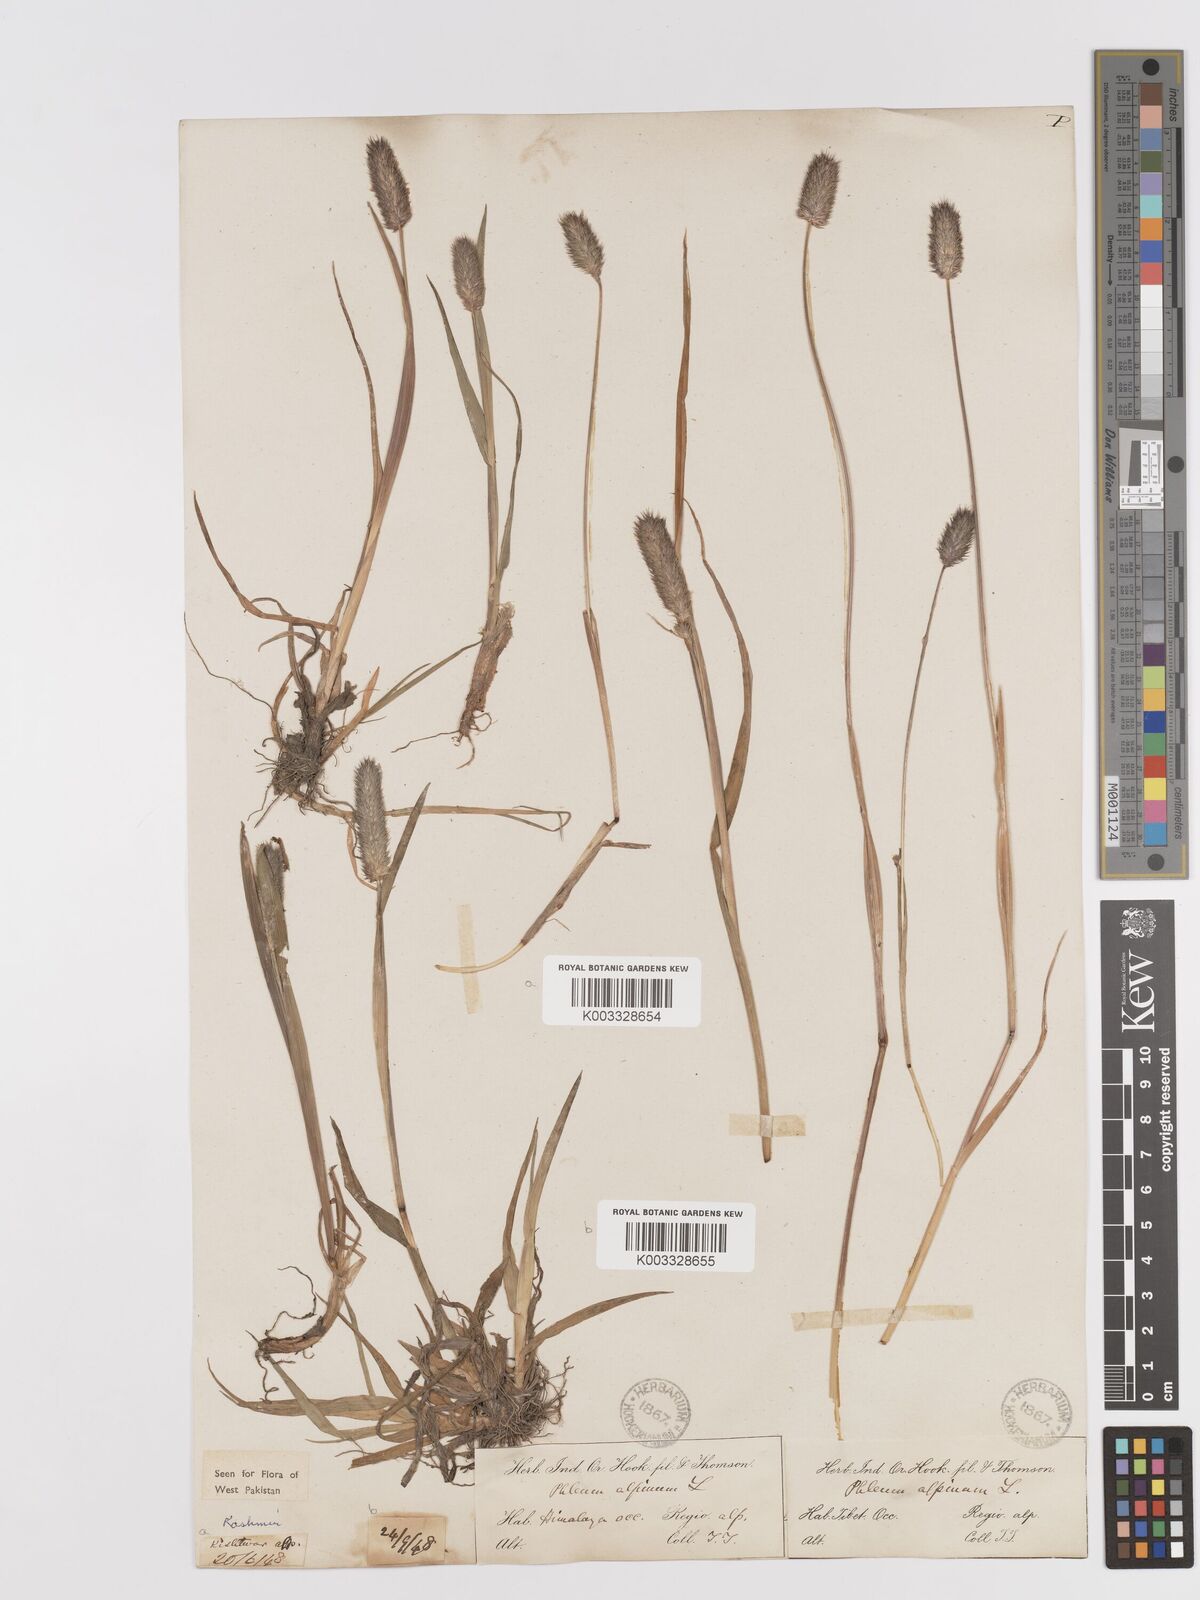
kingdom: Plantae
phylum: Tracheophyta
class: Liliopsida
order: Poales
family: Poaceae
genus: Phleum
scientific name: Phleum alpinum
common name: Alpine cat's-tail
